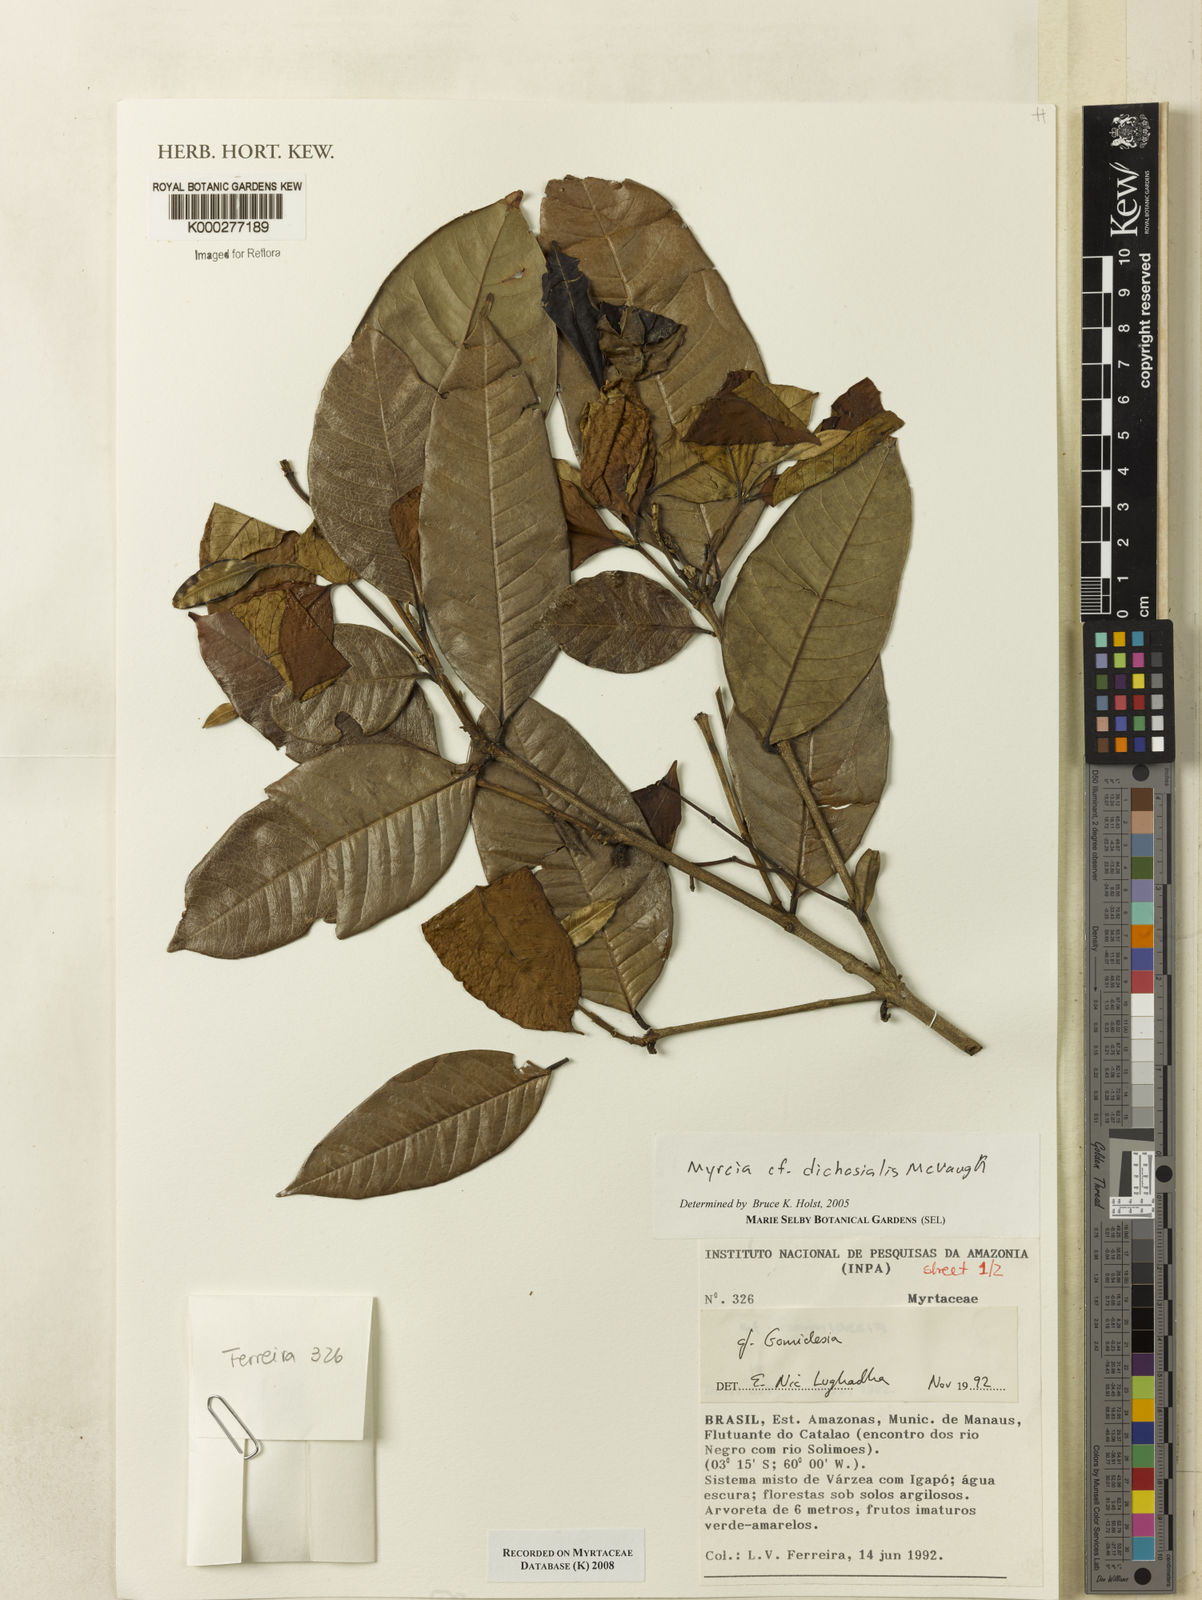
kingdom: Plantae
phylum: Tracheophyta
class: Magnoliopsida
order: Myrtales
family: Myrtaceae
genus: Myrcia
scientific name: Myrcia dichasialis
